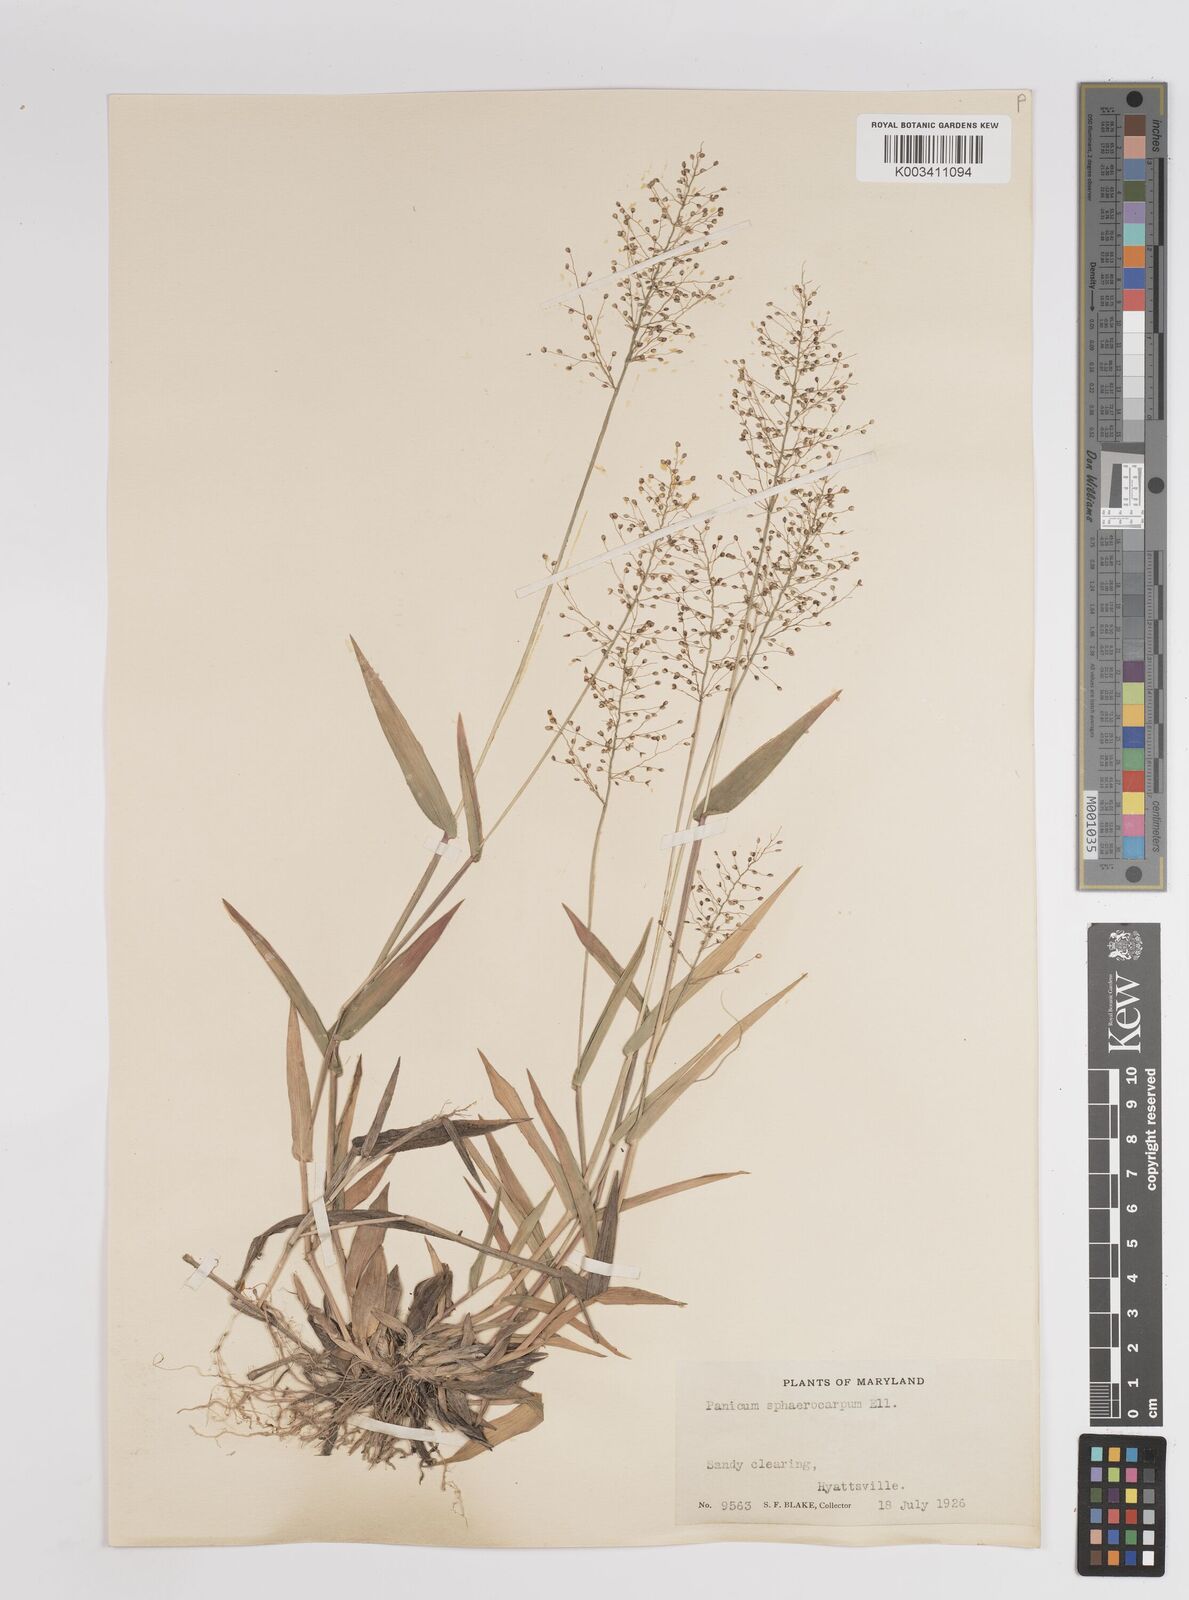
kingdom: Plantae
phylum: Tracheophyta
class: Liliopsida
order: Poales
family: Poaceae
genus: Dichanthelium
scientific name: Dichanthelium sphaerocarpon
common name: Round-fruited panicgrass
